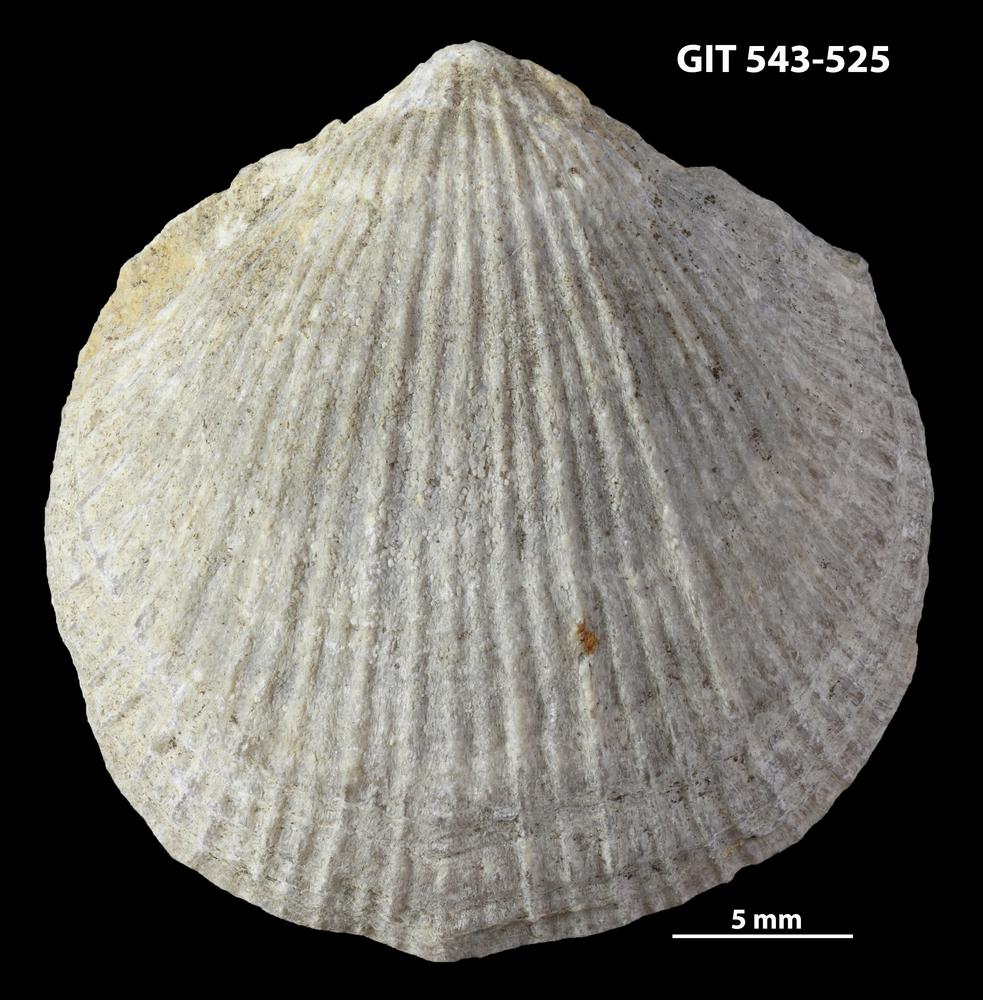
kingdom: Animalia
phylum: Brachiopoda
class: Rhynchonellata
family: Clitambonitidae
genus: Vellamo
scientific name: Vellamo Orthis verneuili
